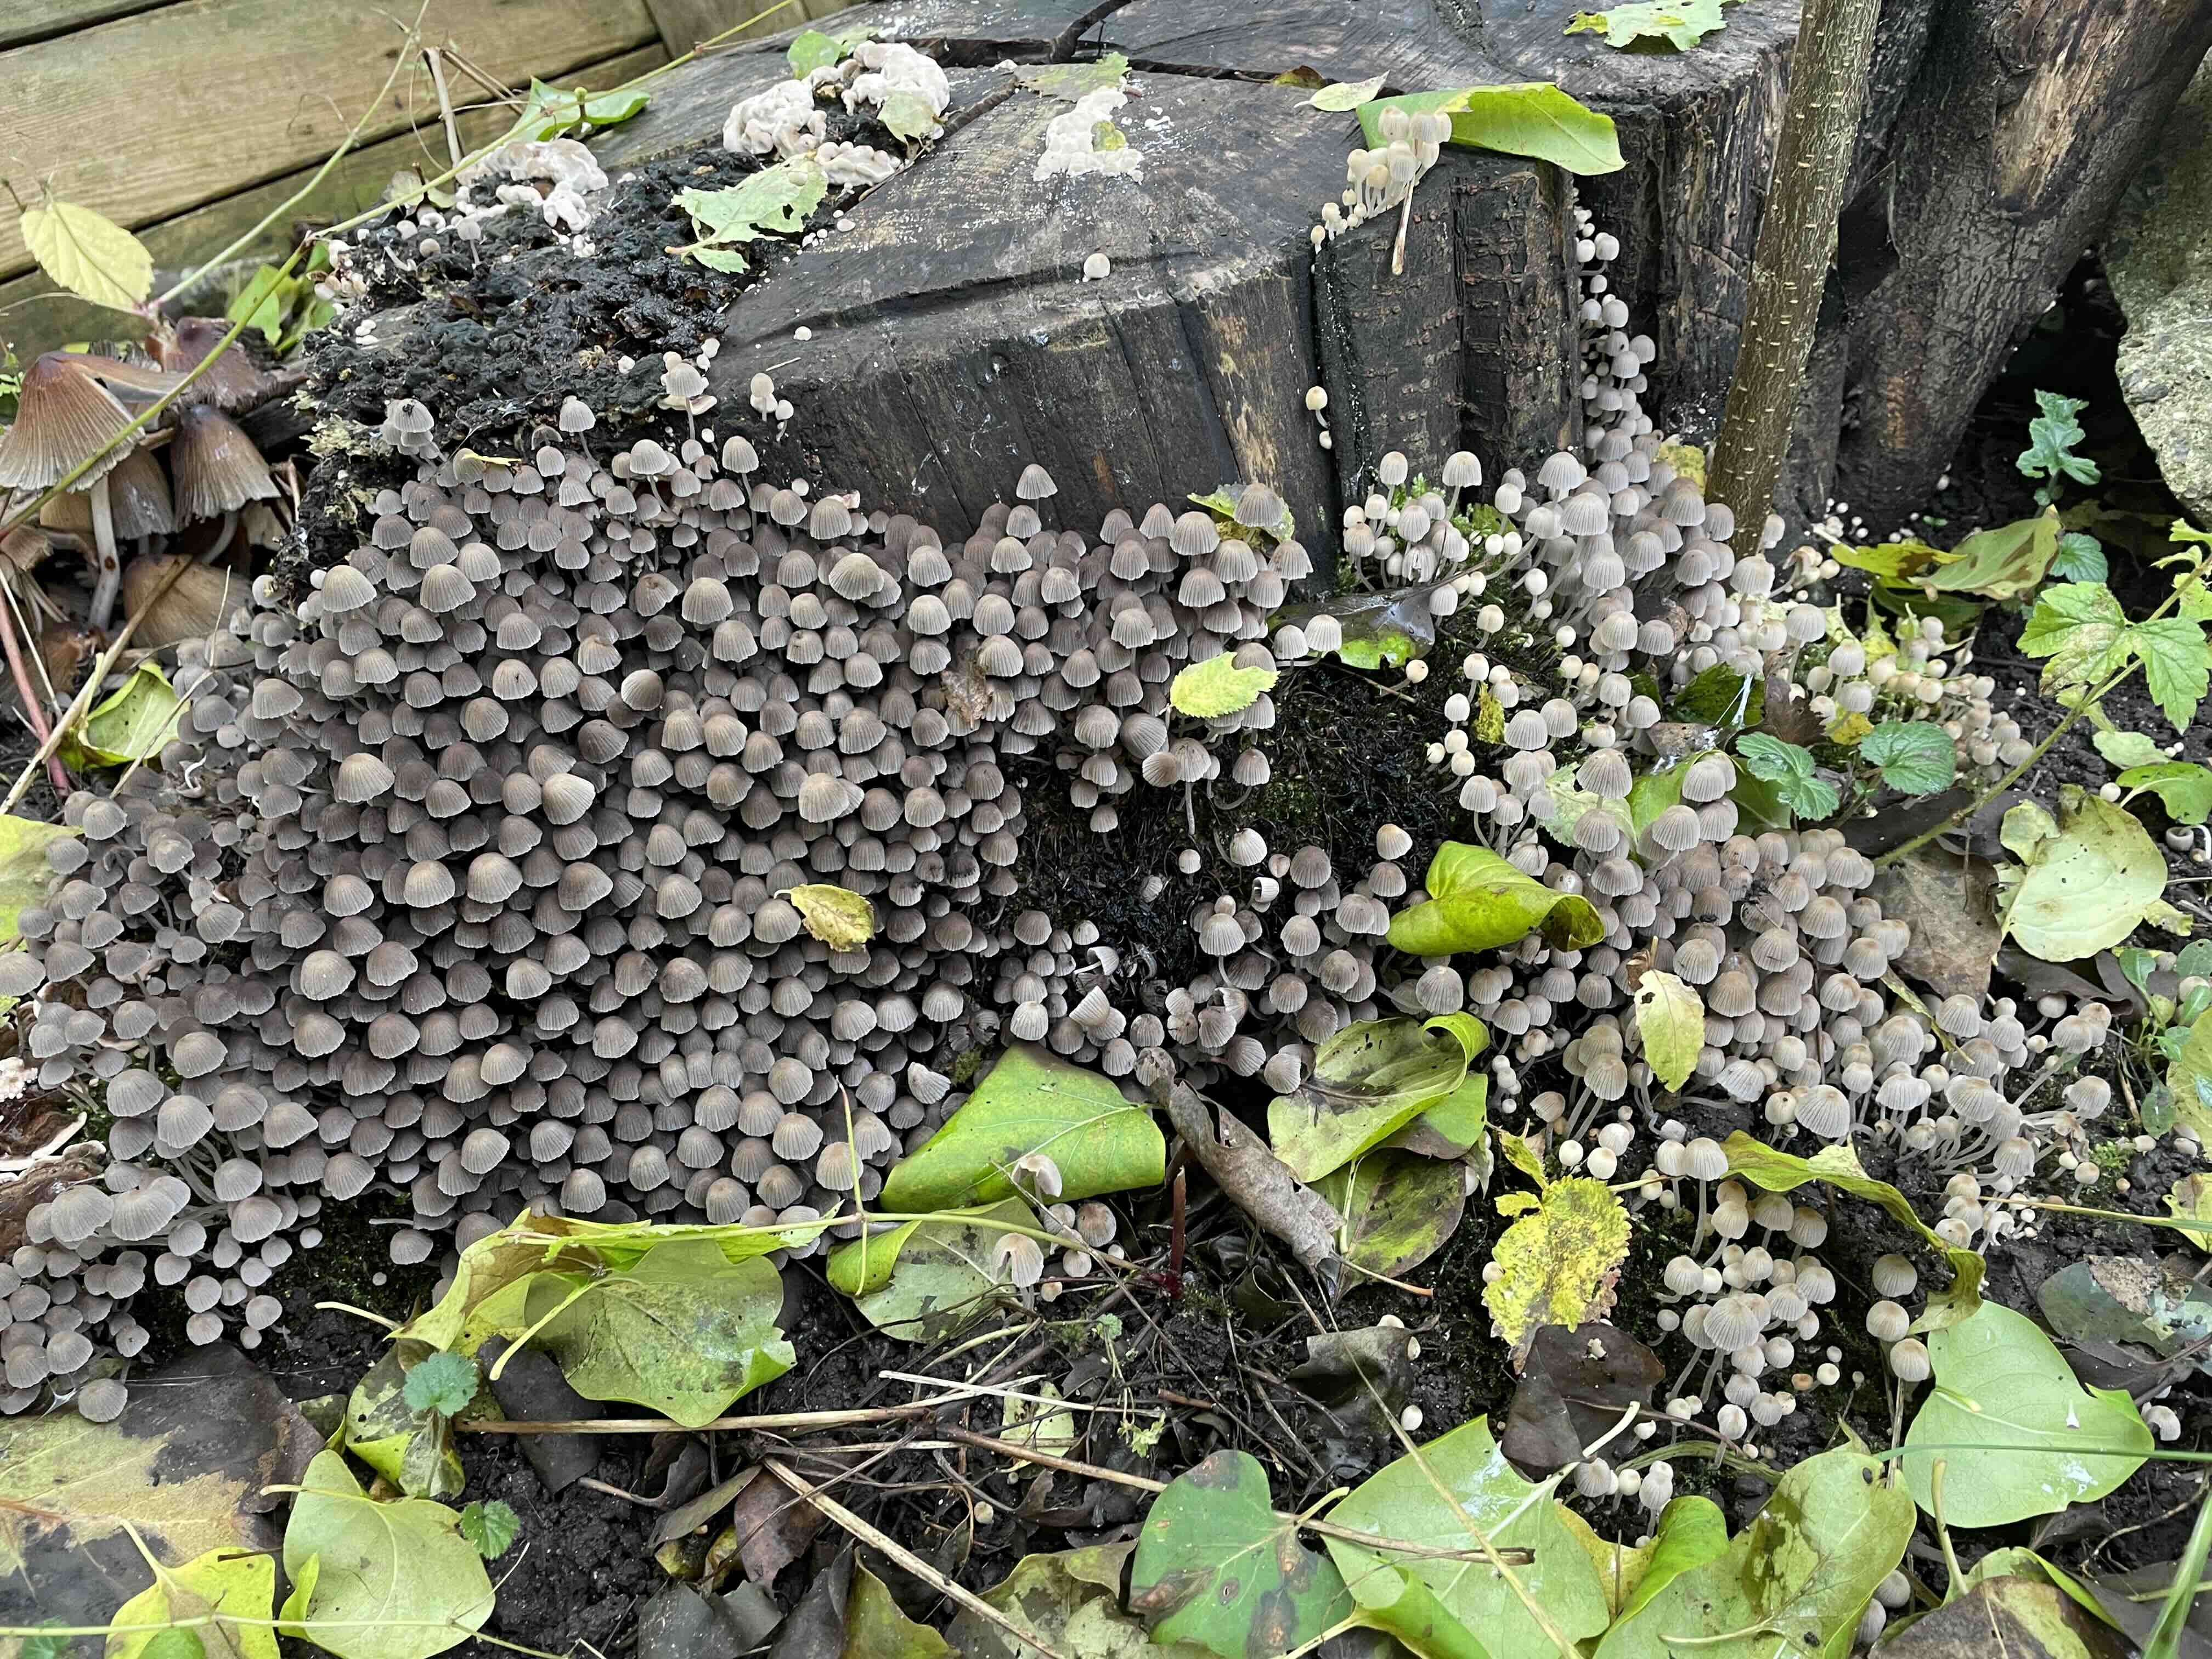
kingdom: Fungi
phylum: Basidiomycota
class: Agaricomycetes
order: Agaricales
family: Psathyrellaceae
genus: Coprinellus
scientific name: Coprinellus disseminatus
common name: bredsået blækhat
